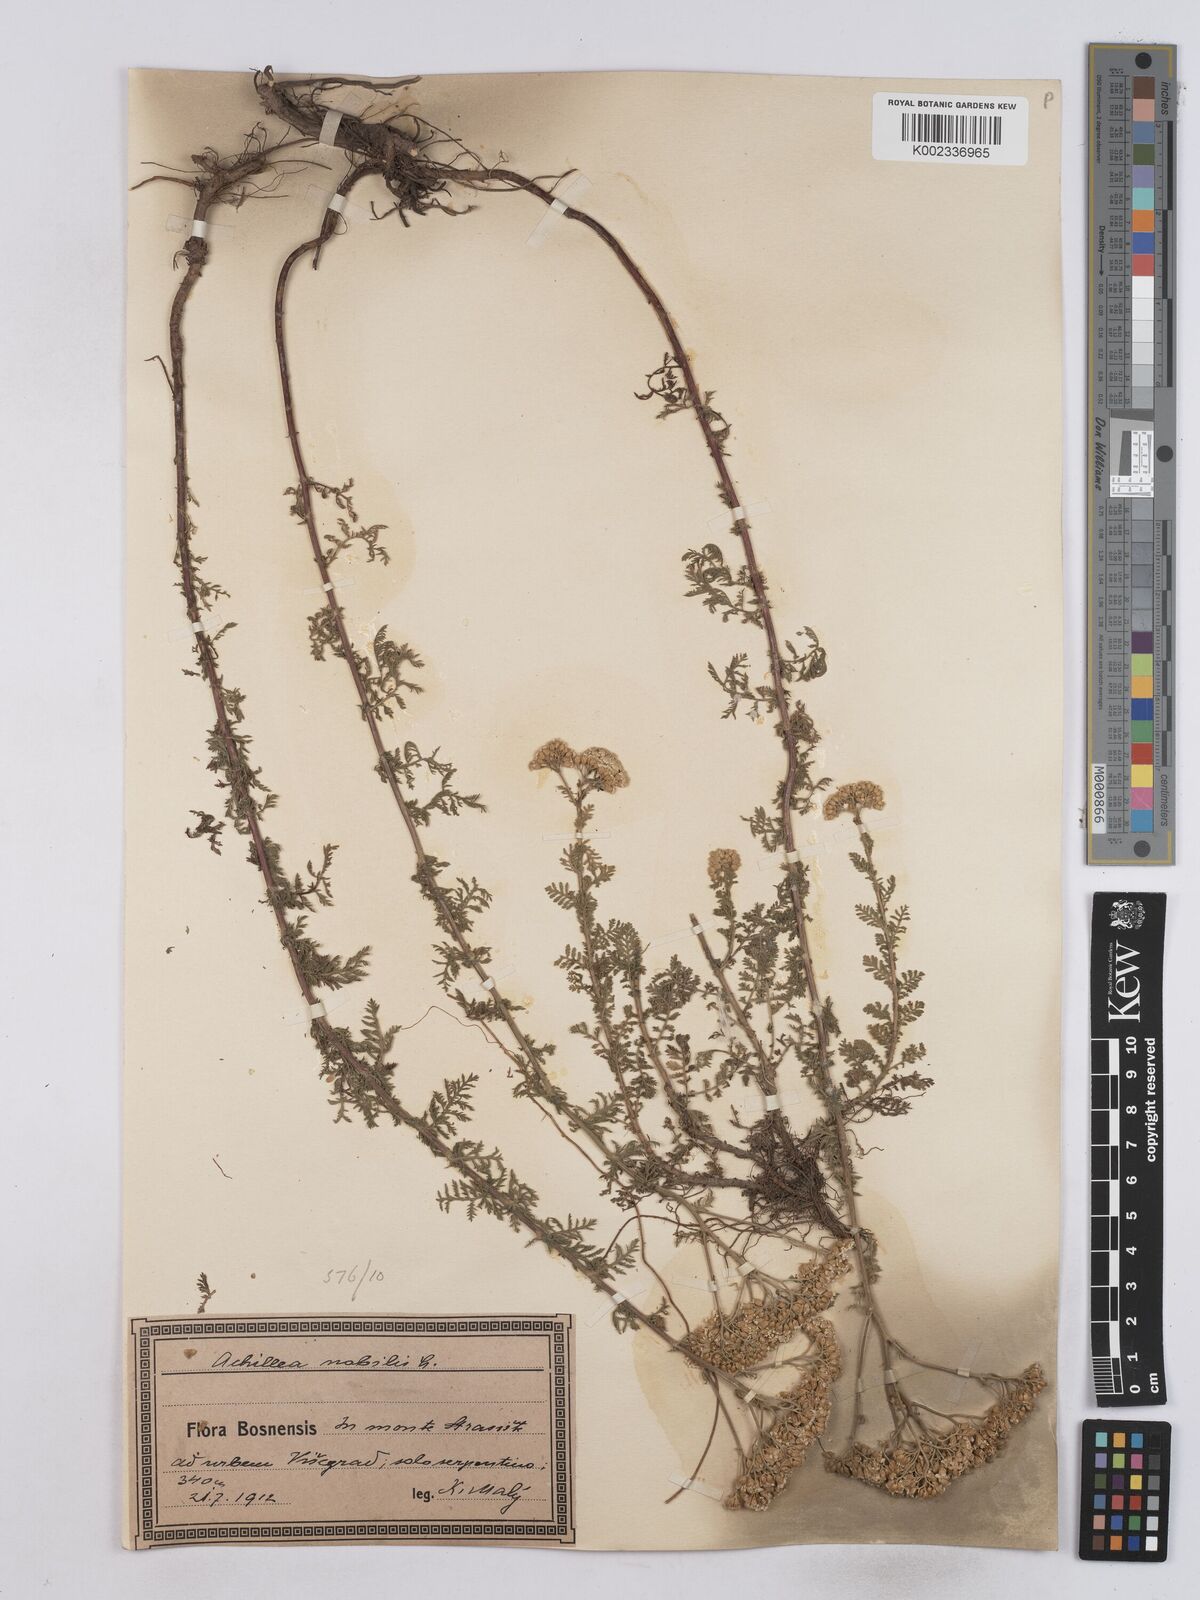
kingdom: Plantae
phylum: Tracheophyta
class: Magnoliopsida
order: Asterales
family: Asteraceae
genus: Achillea
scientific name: Achillea nobilis
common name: Noble yarrow
